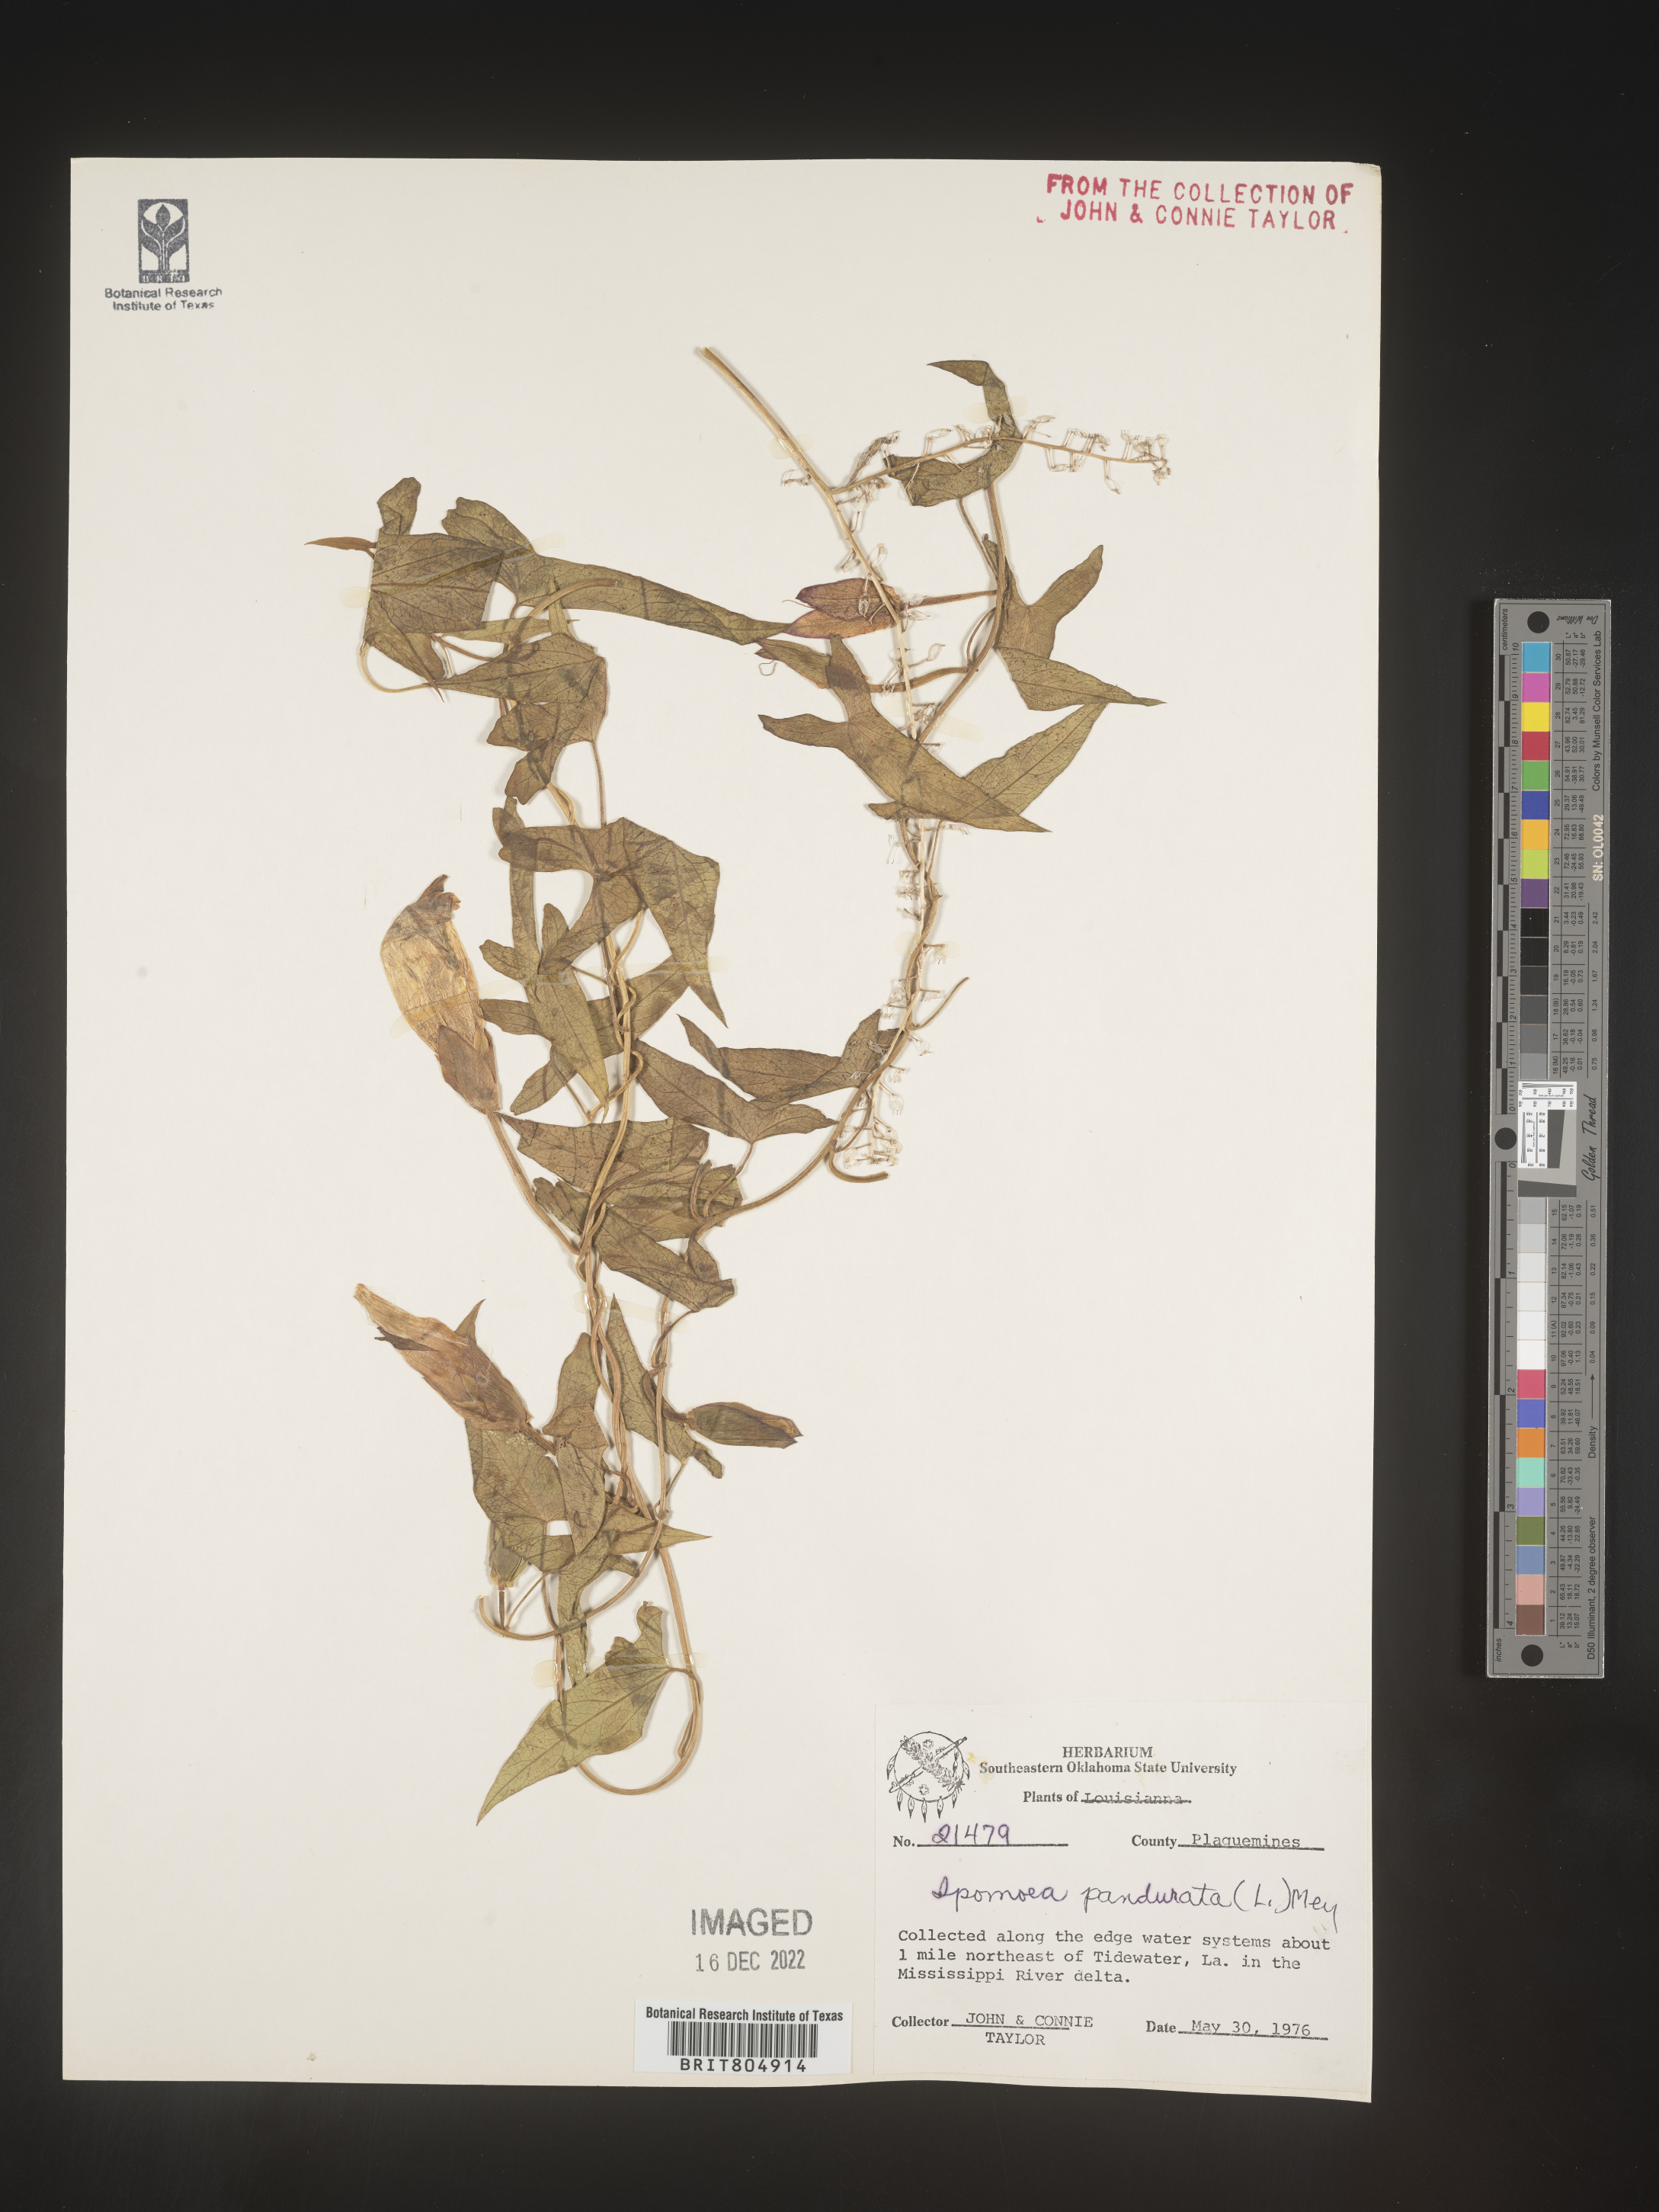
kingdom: Plantae
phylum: Tracheophyta
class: Magnoliopsida
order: Solanales
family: Convolvulaceae
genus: Ipomoea
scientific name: Ipomoea pandurata
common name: Man-of-the-earth
